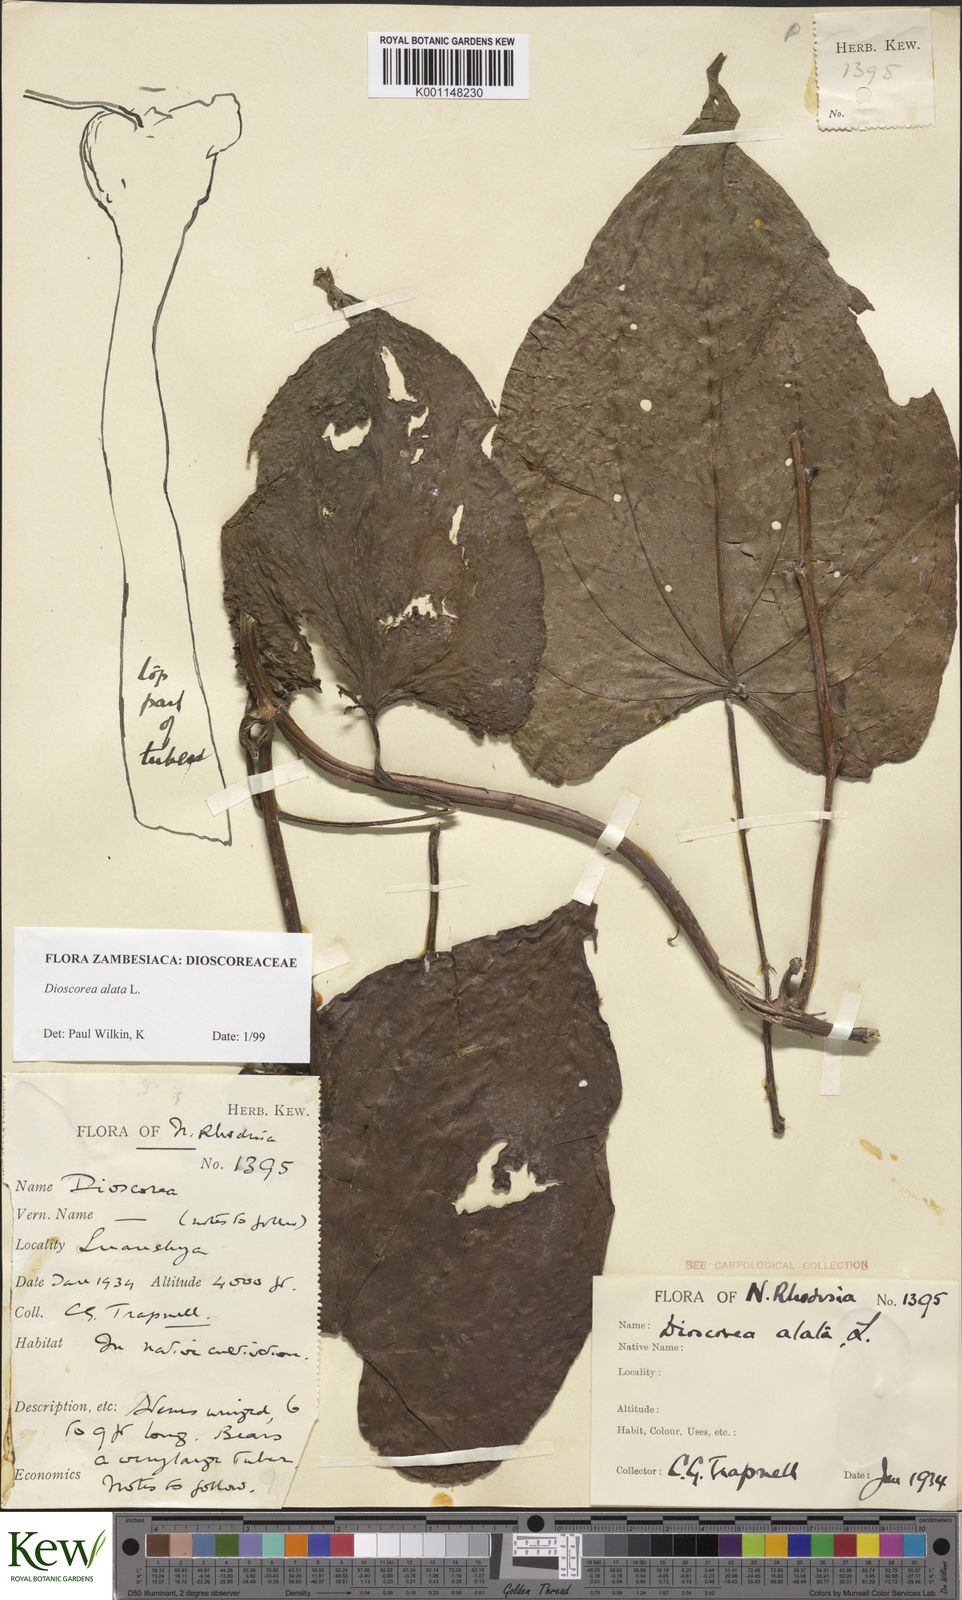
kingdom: Plantae
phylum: Tracheophyta
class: Liliopsida
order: Dioscoreales
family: Dioscoreaceae
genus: Dioscorea
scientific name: Dioscorea alata
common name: Water yam
